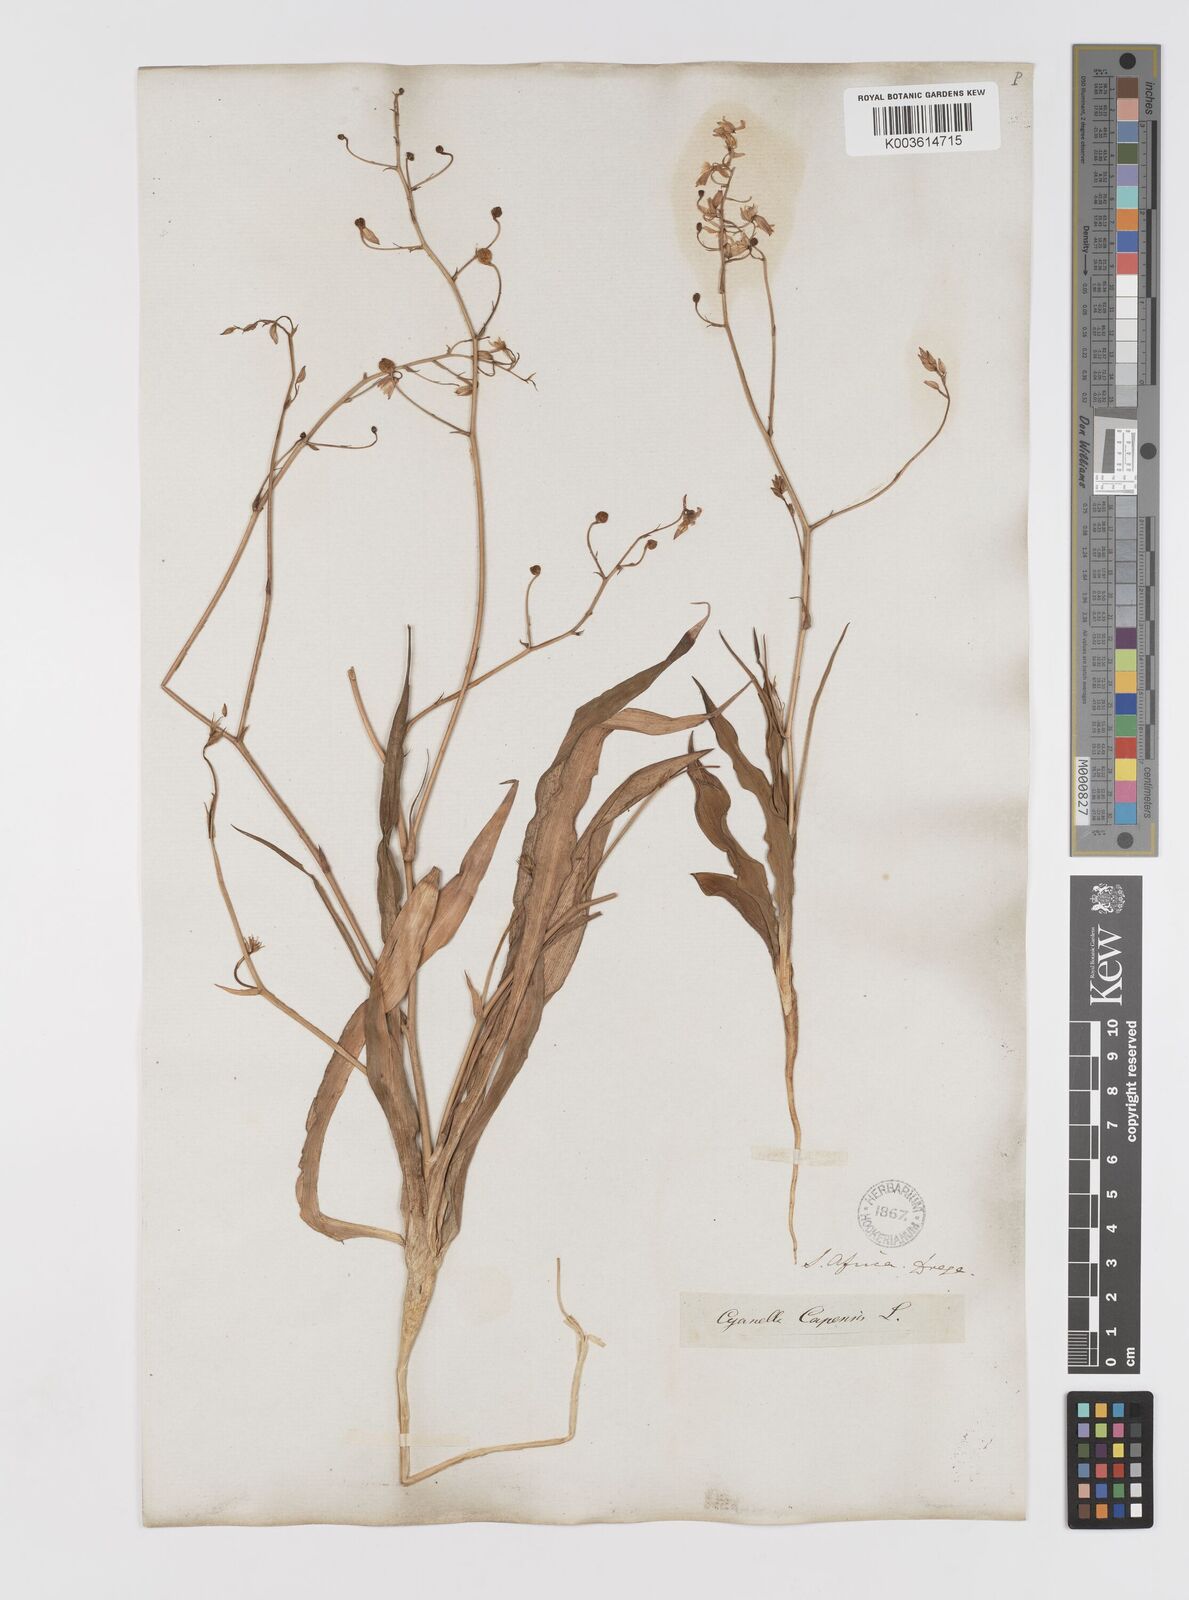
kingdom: Plantae
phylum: Tracheophyta
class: Liliopsida
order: Asparagales
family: Tecophilaeaceae
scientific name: Tecophilaeaceae
